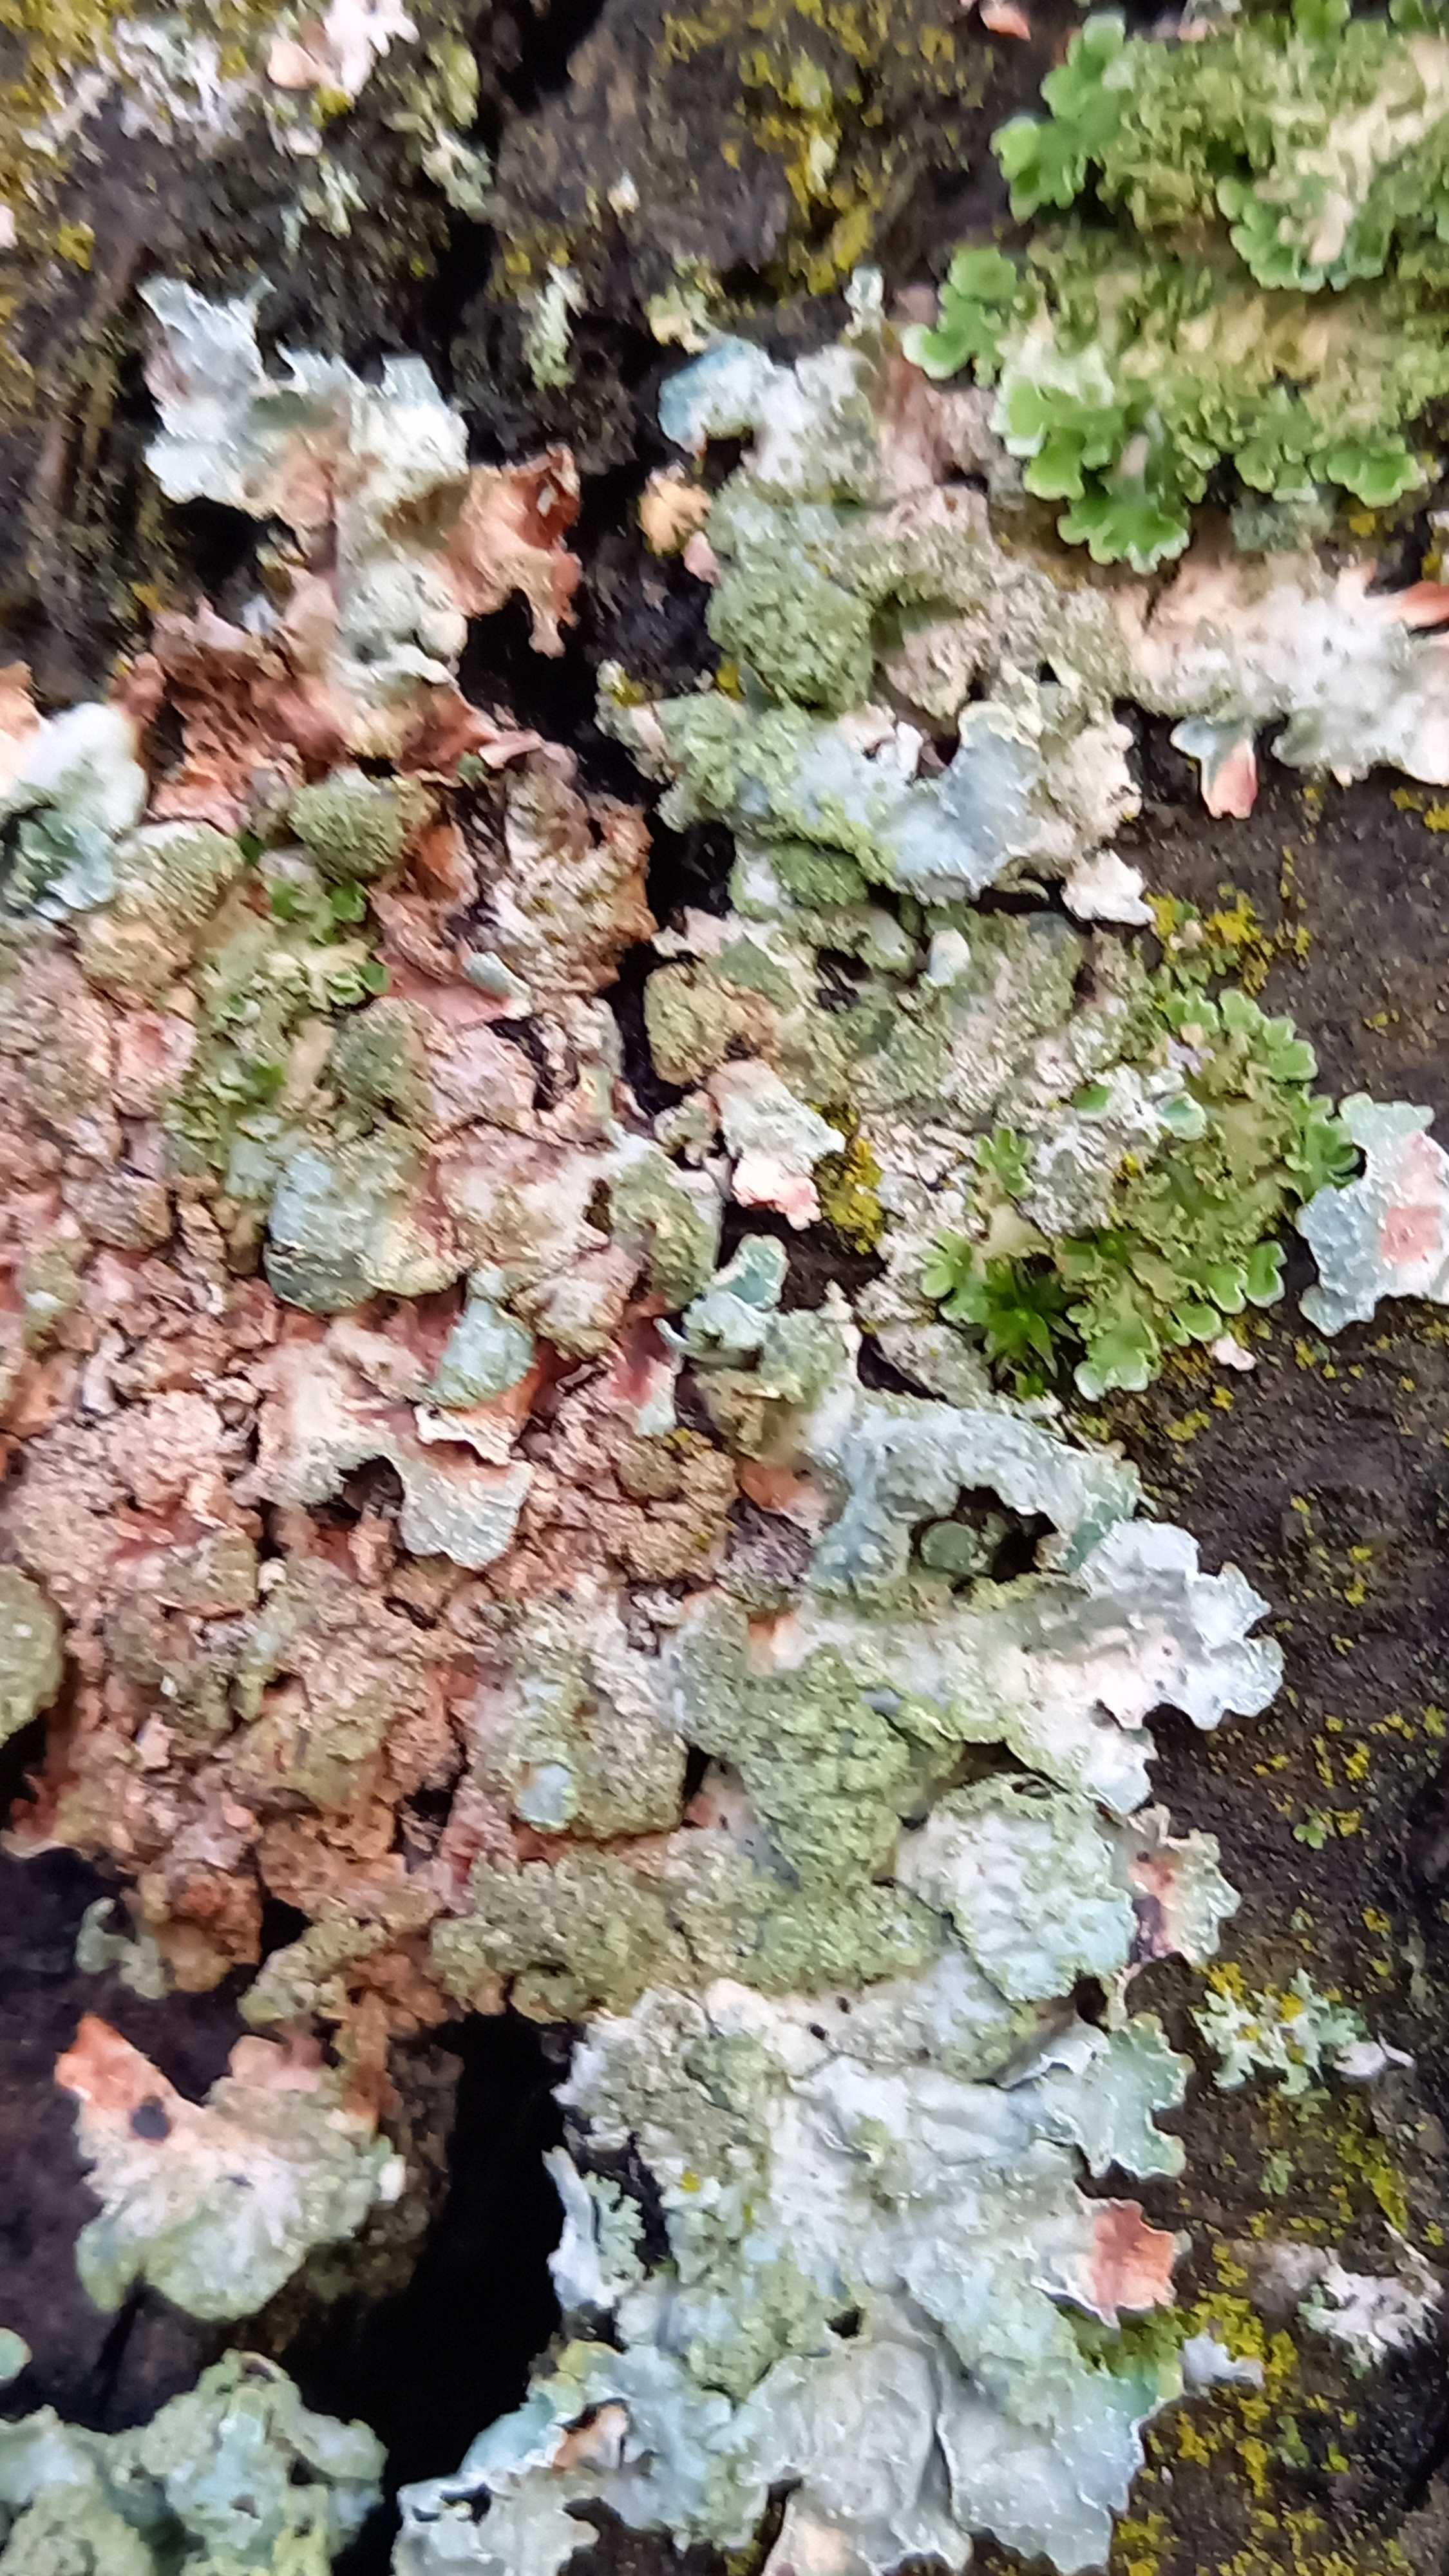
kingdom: Fungi
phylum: Ascomycota
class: Lecanoromycetes
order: Lecanorales
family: Parmeliaceae
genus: Parmelia
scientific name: Parmelia sulcata
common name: rynket skållav
